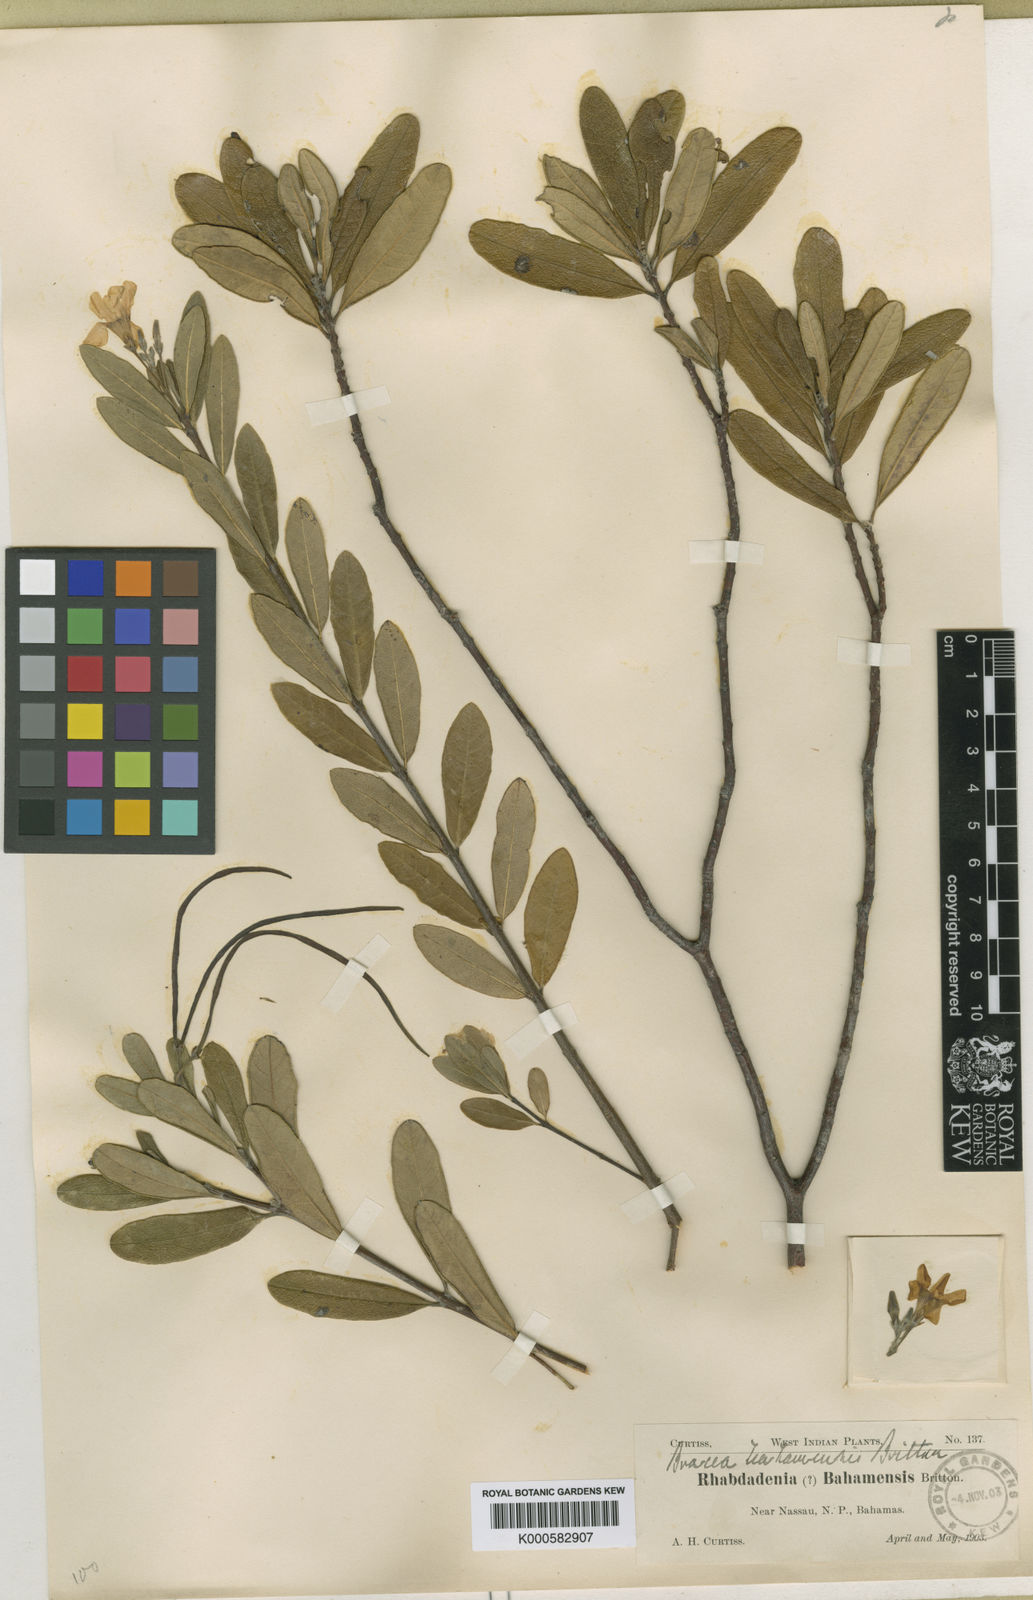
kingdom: Plantae
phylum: Tracheophyta
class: Magnoliopsida
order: Gentianales
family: Apocynaceae
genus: Neobracea
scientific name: Neobracea bahamensis
